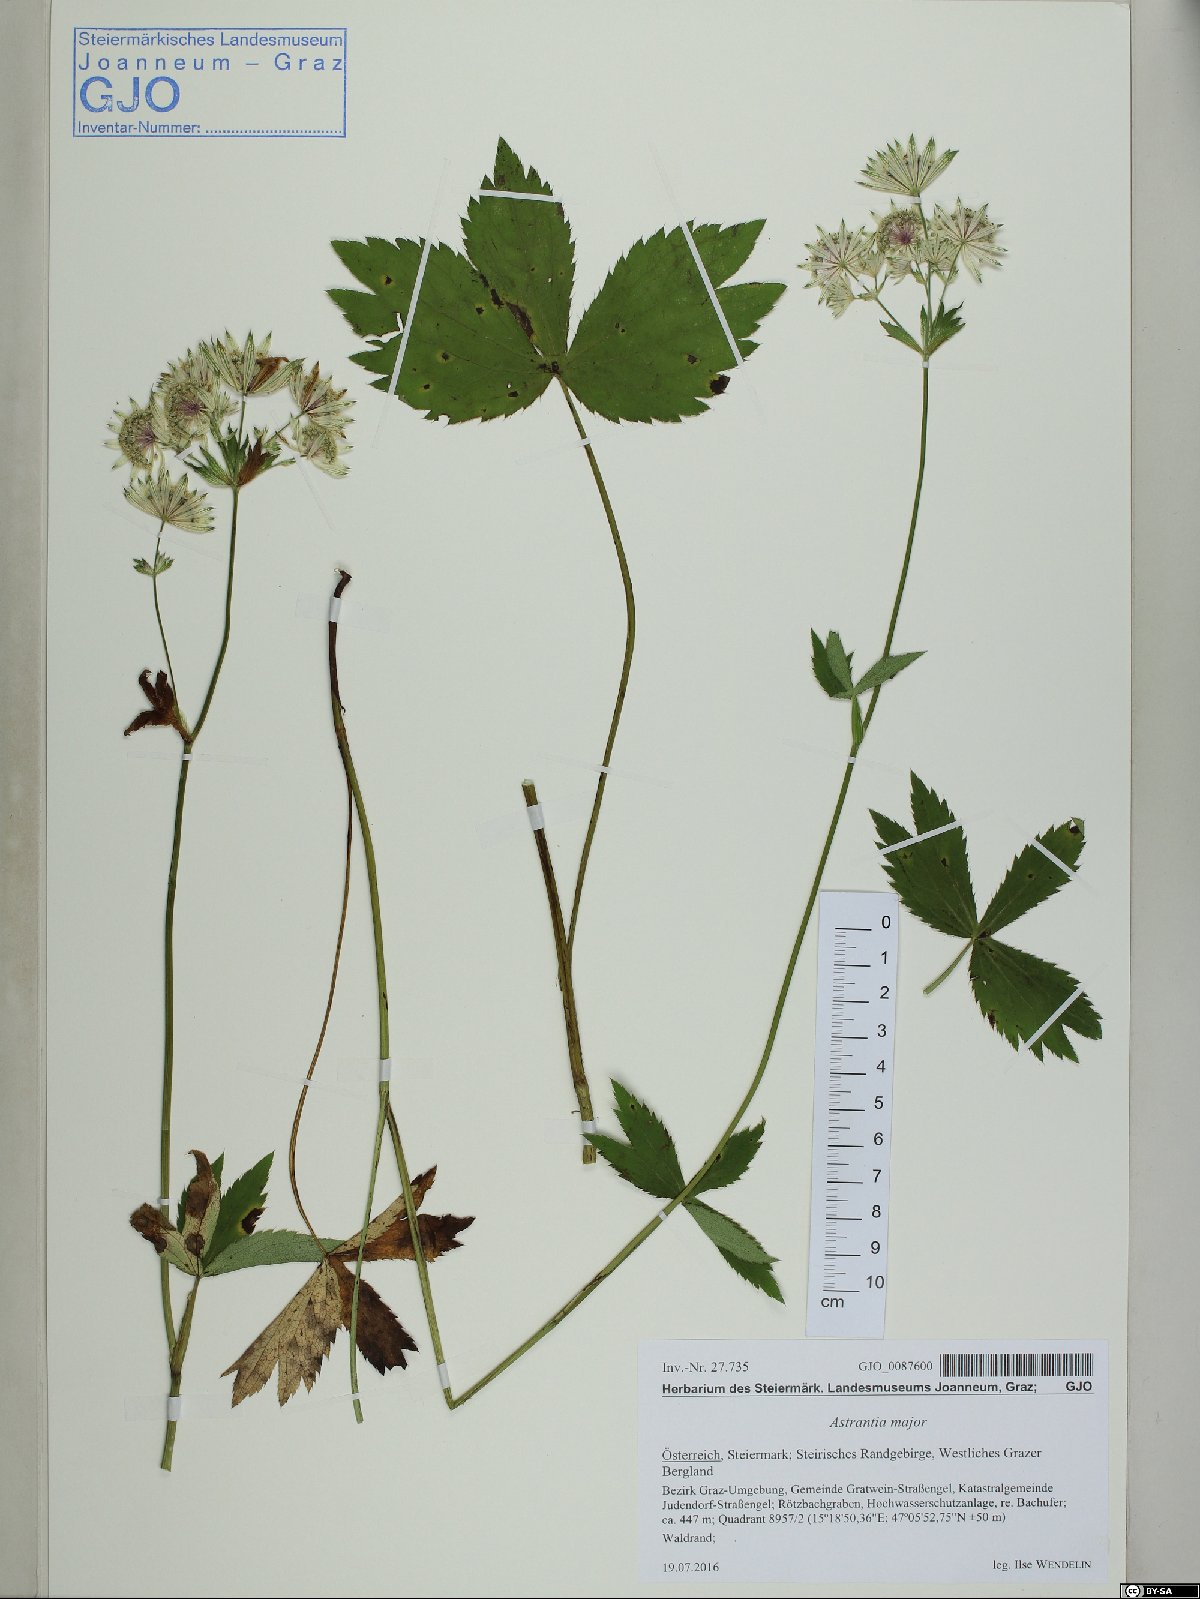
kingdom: Plantae
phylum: Tracheophyta
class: Magnoliopsida
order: Apiales
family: Apiaceae
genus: Astrantia
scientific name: Astrantia major
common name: Greater masterwort
